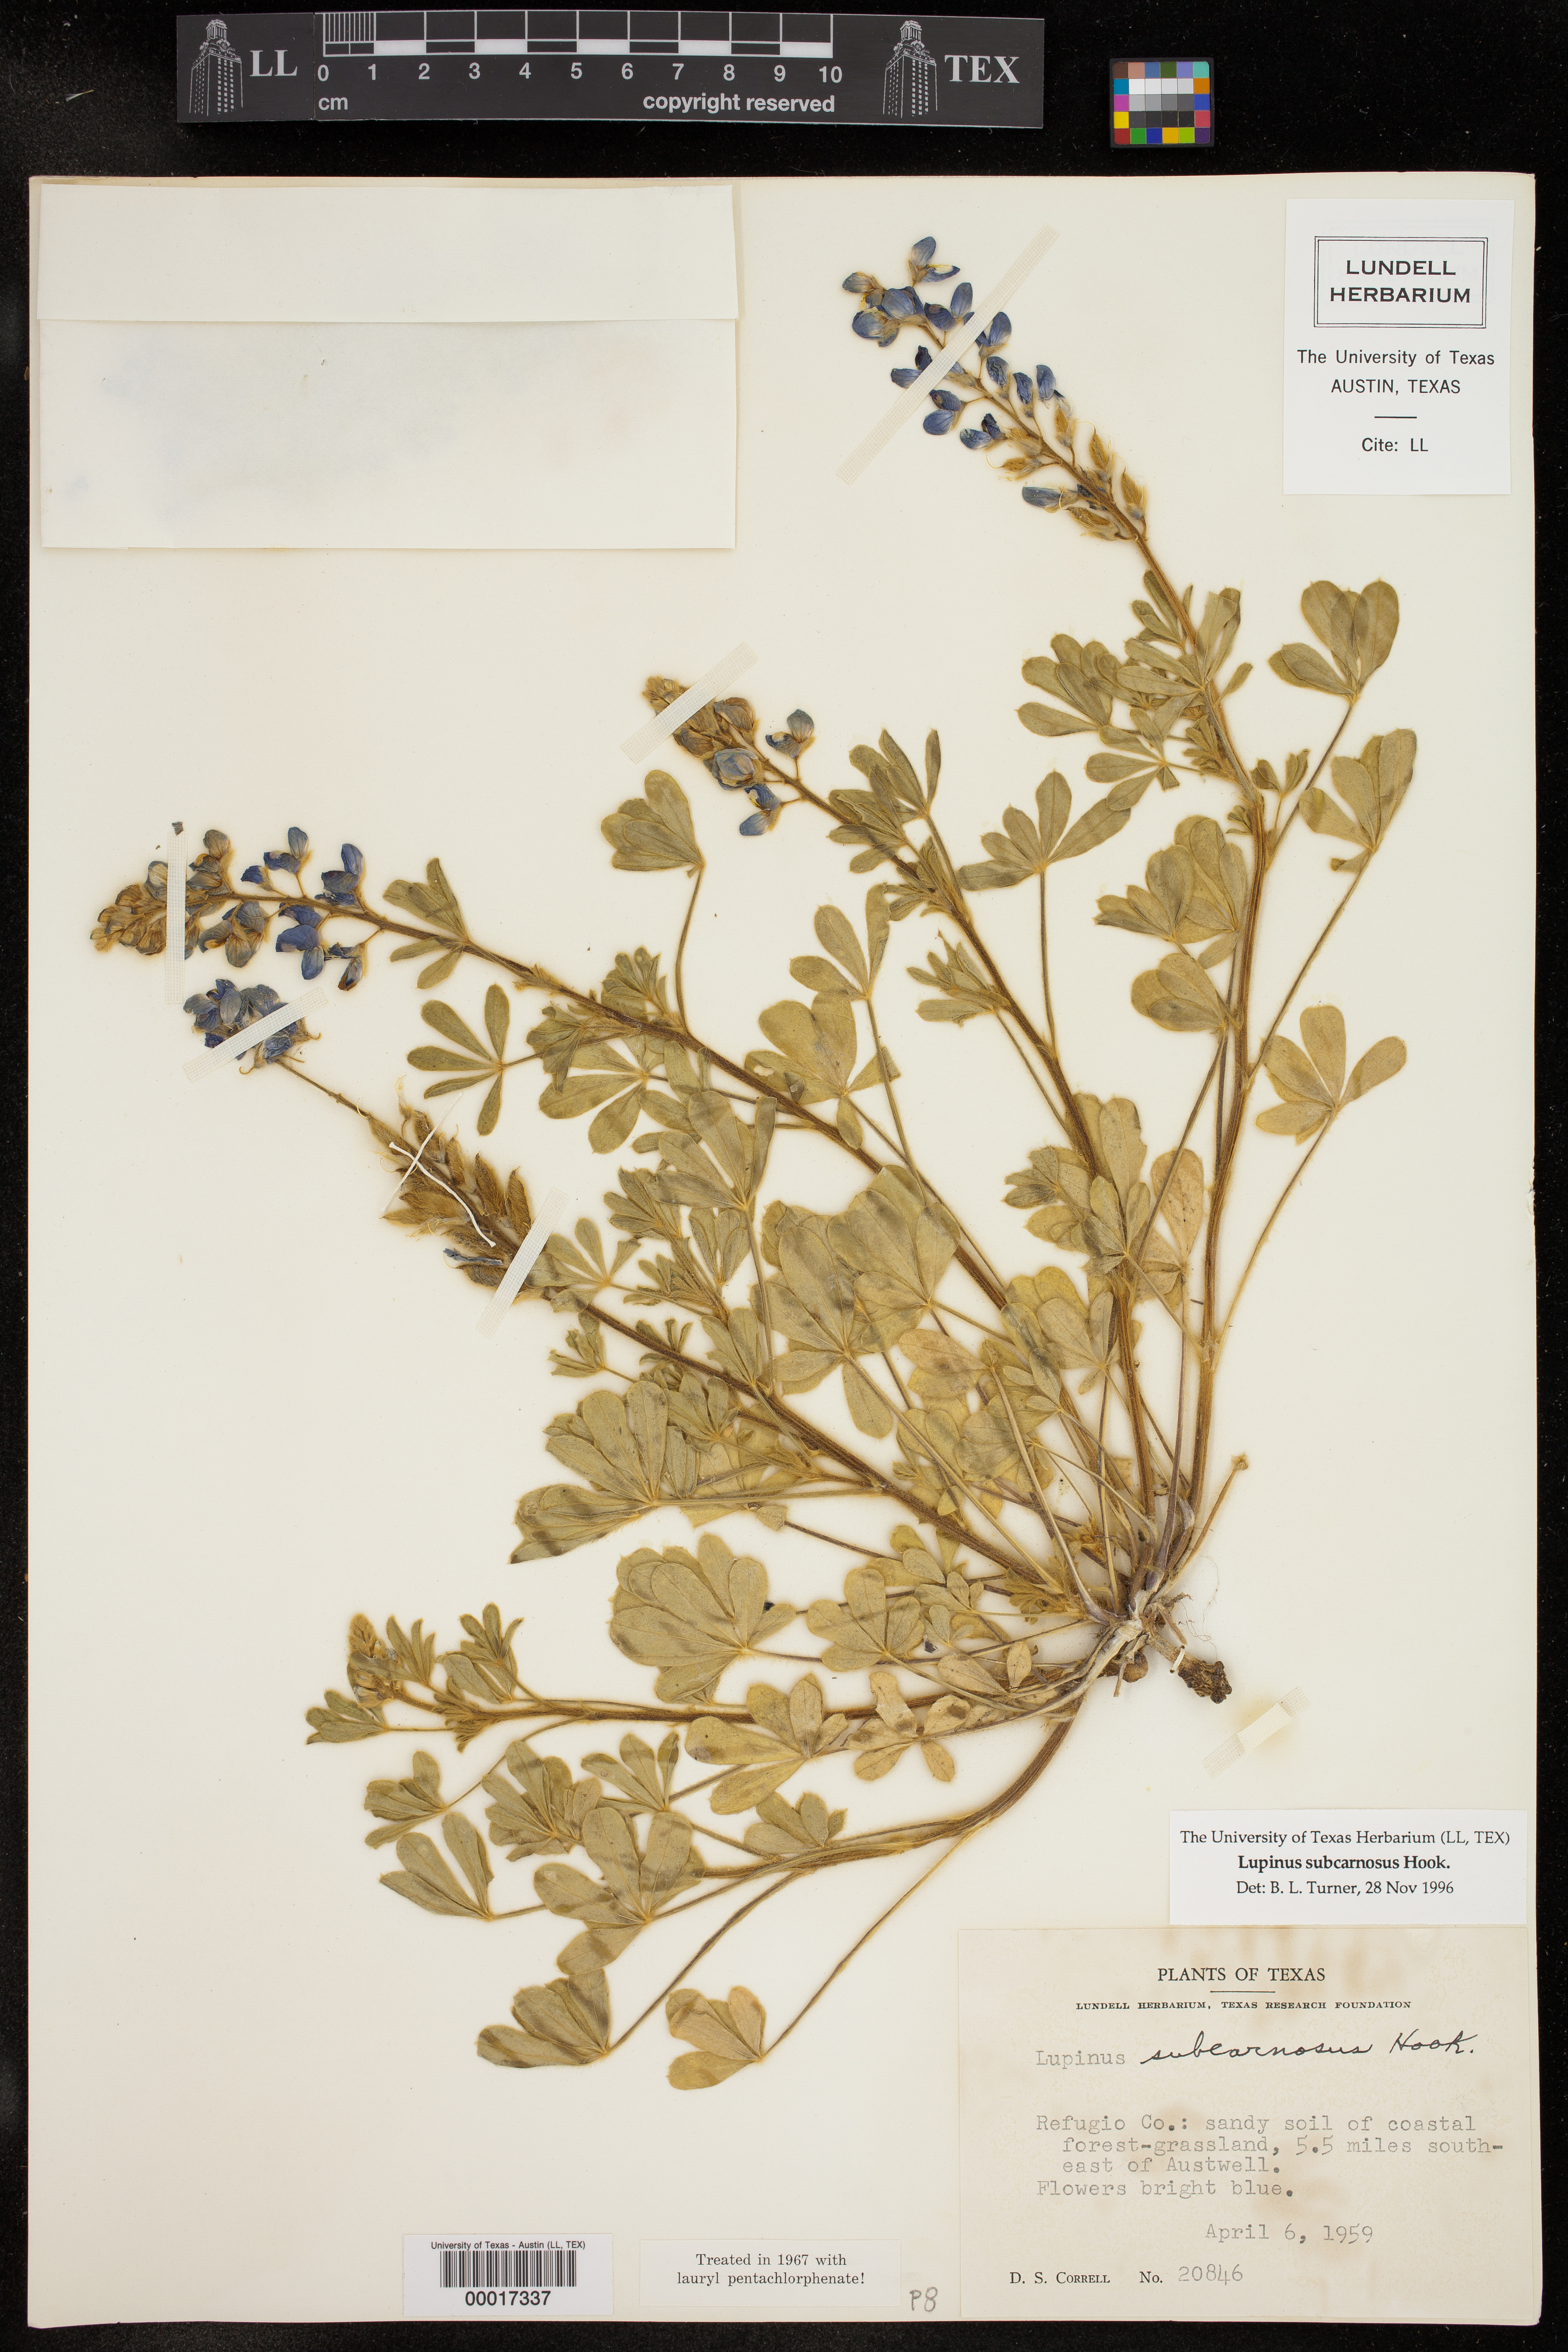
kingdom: Plantae
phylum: Tracheophyta
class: Magnoliopsida
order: Fabales
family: Fabaceae
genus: Lupinus
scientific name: Lupinus subcarnosus
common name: Texas bluebonnet
